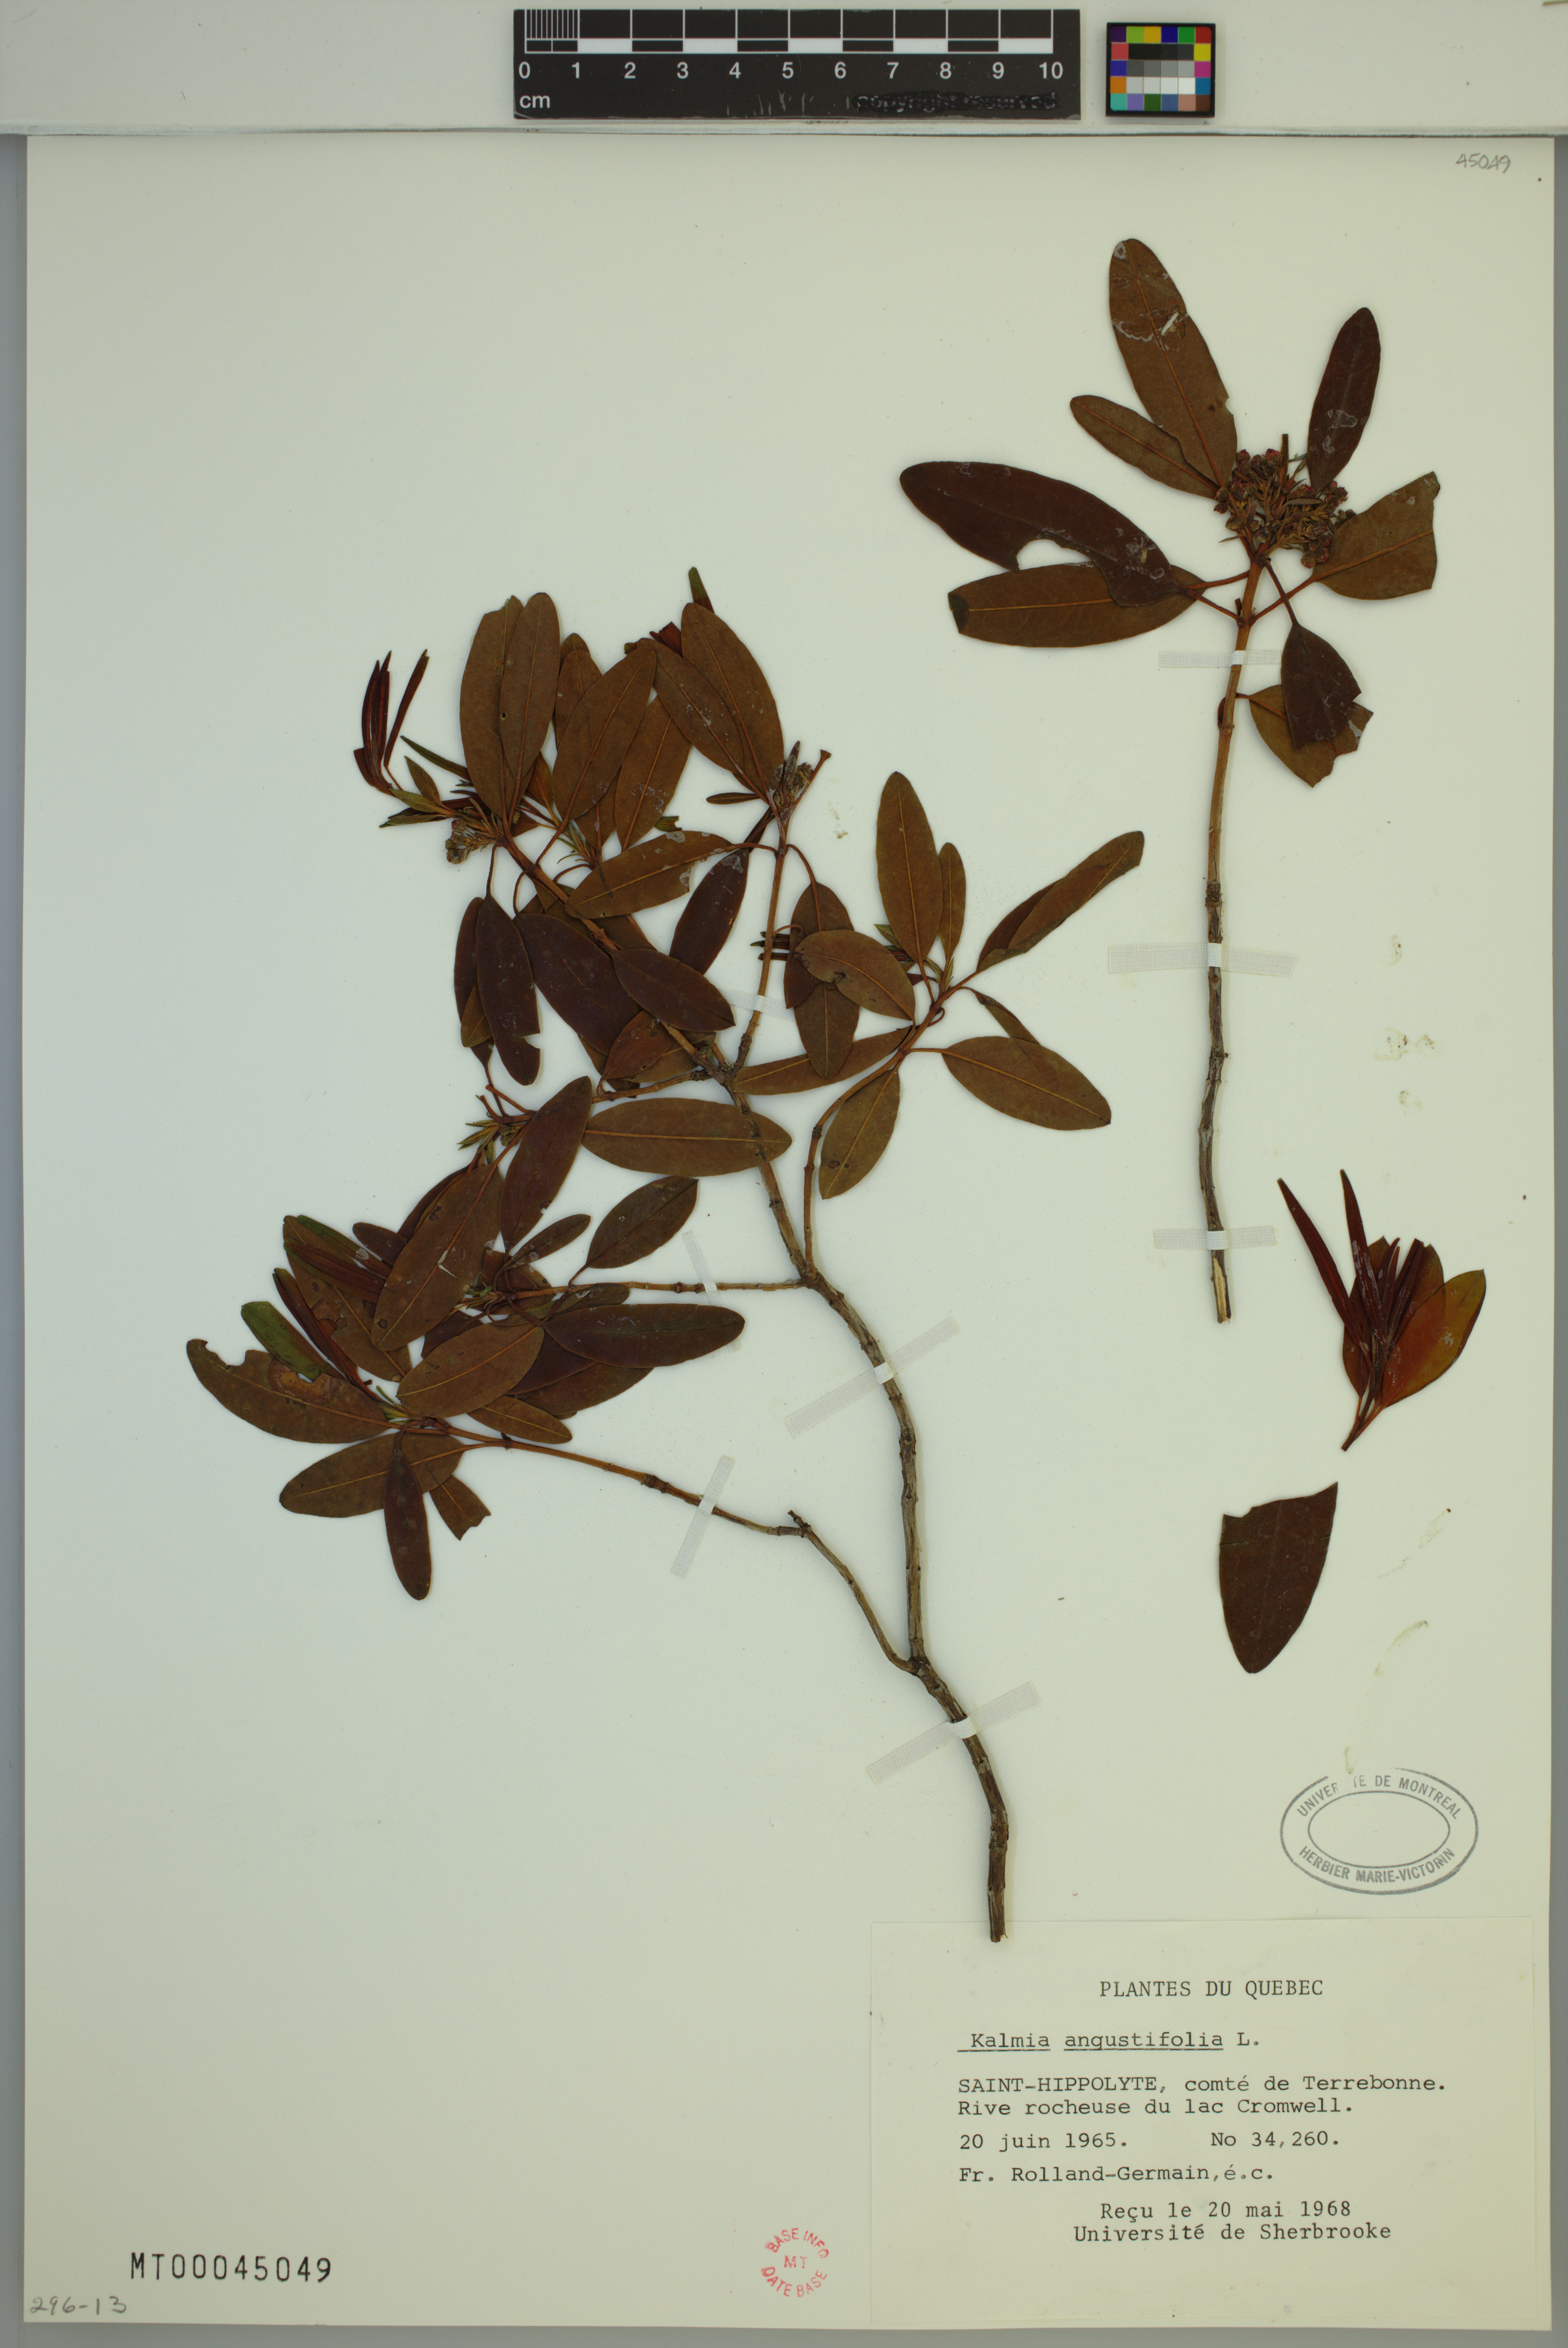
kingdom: Plantae
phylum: Tracheophyta
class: Magnoliopsida
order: Ericales
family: Ericaceae
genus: Kalmia
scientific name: Kalmia angustifolia
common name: Sheep-laurel
